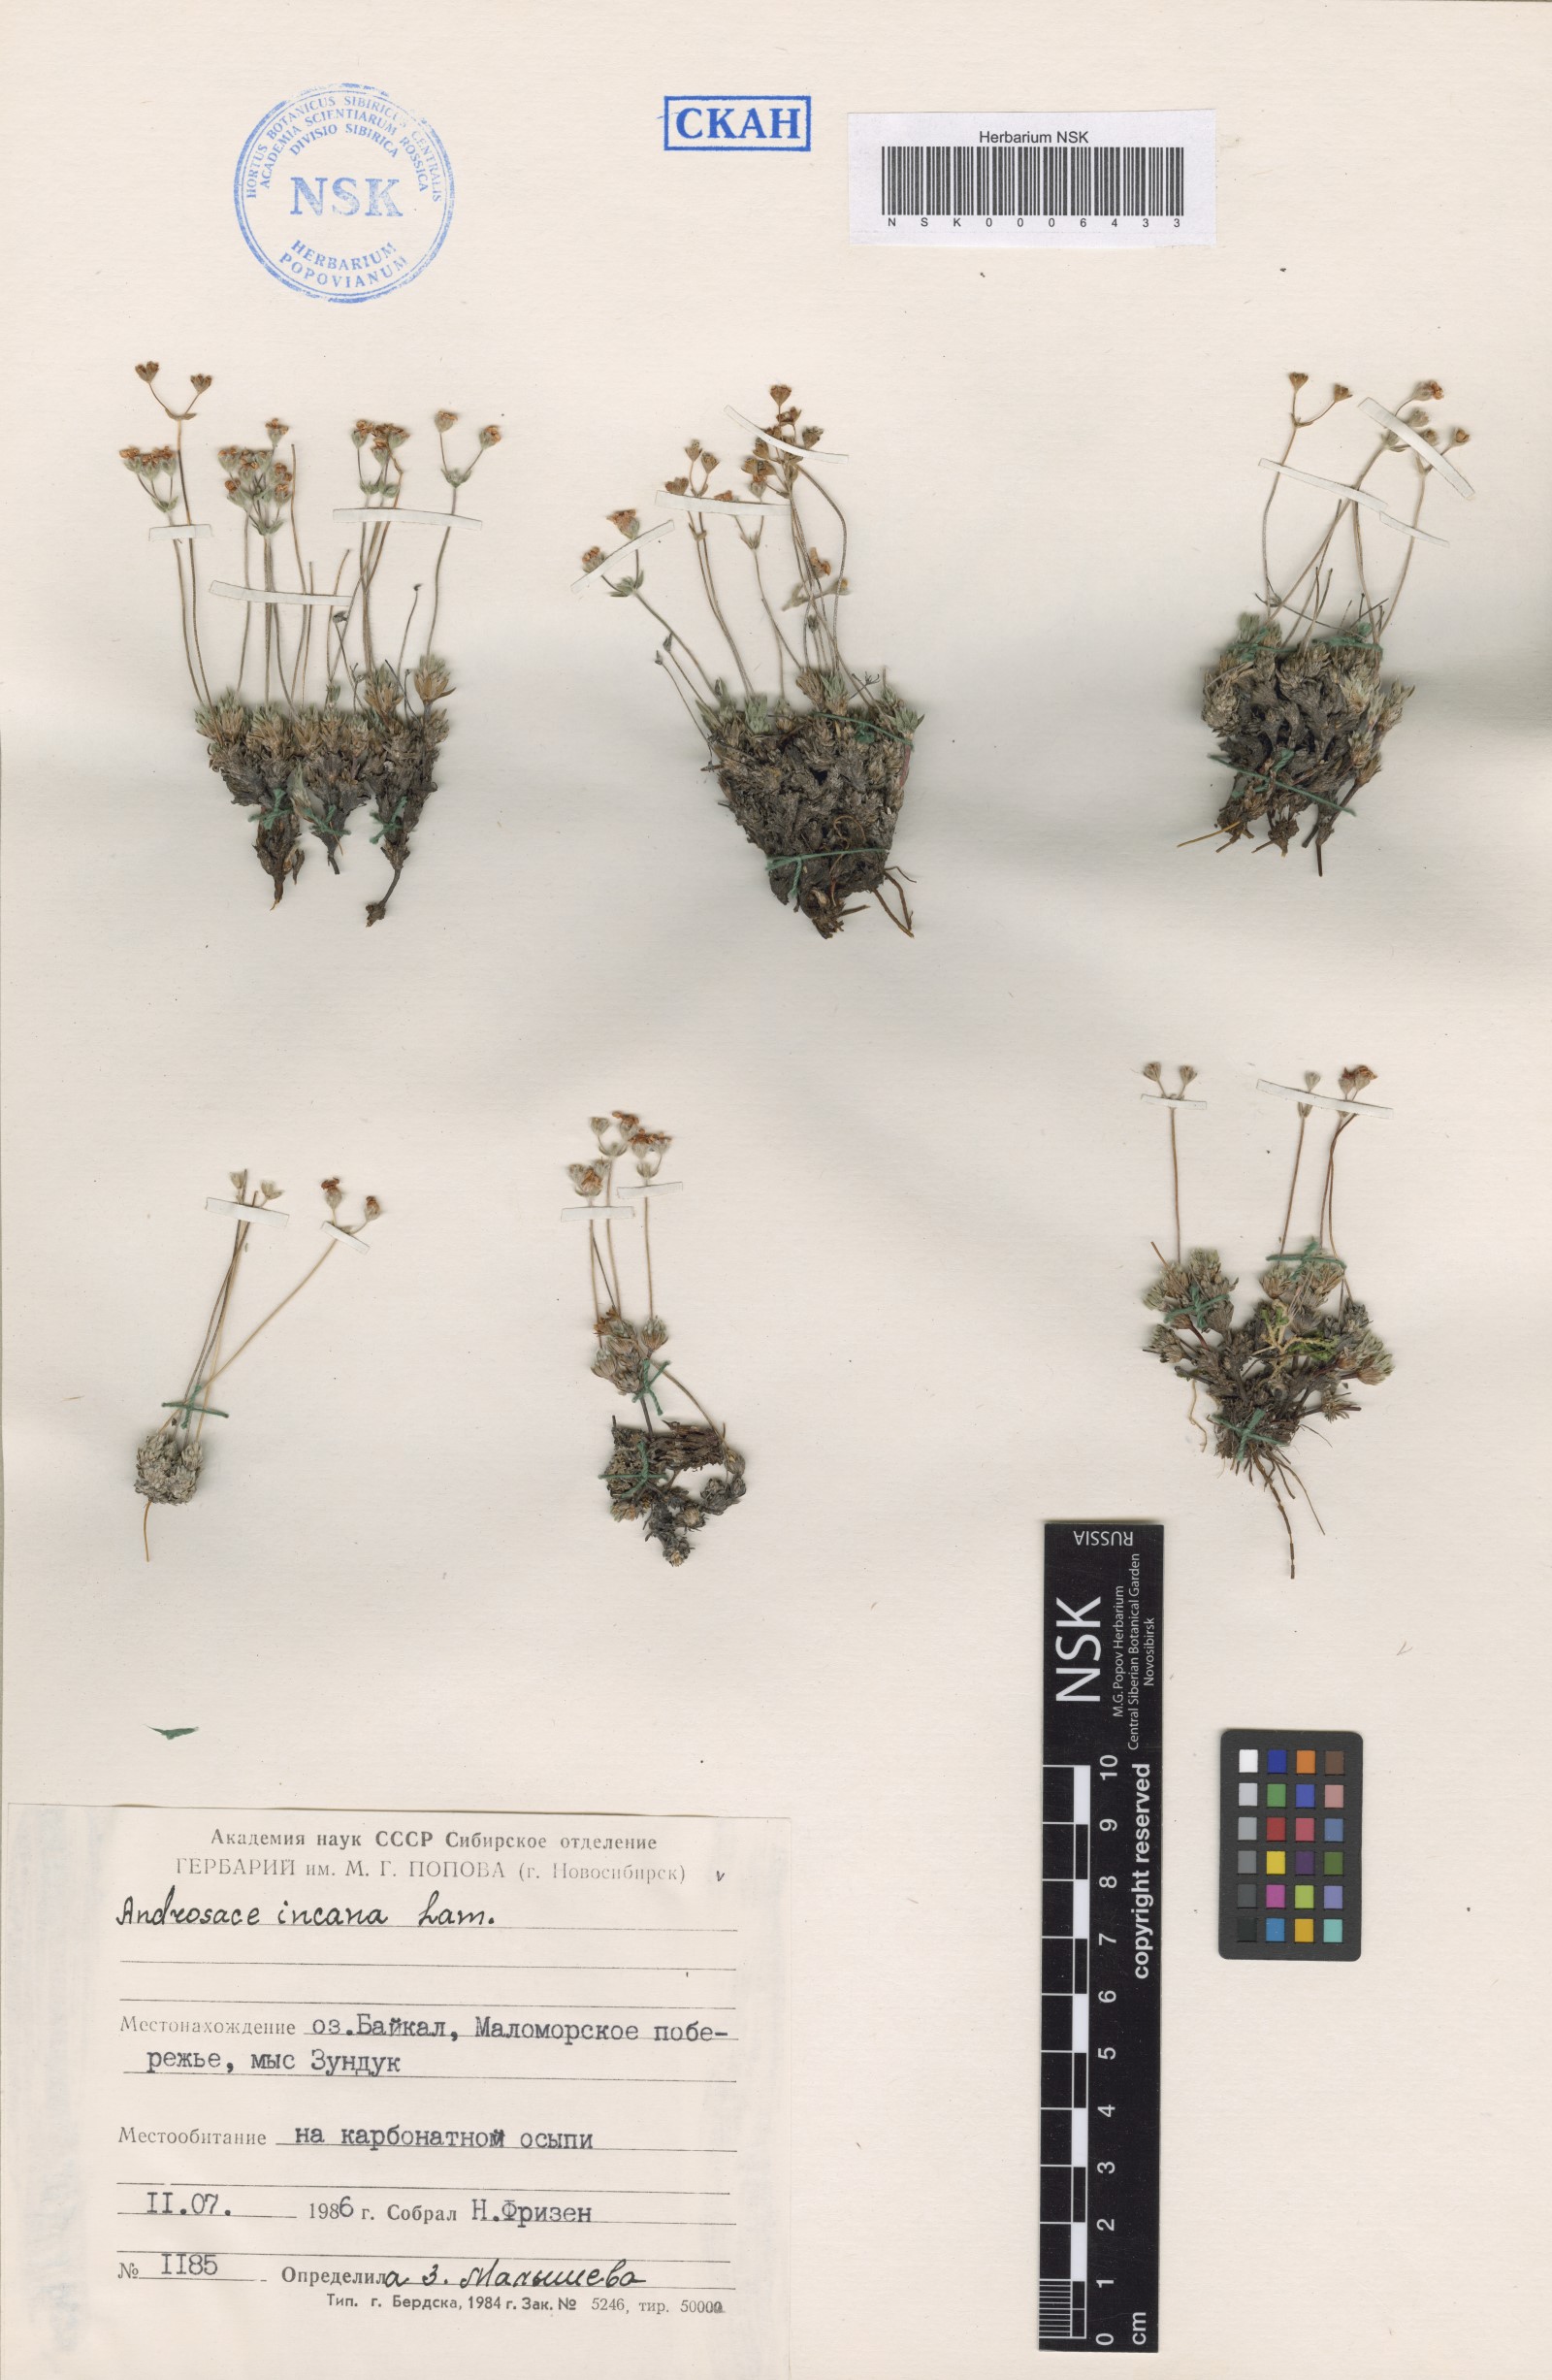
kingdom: Plantae
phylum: Tracheophyta
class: Magnoliopsida
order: Ericales
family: Primulaceae
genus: Androsace
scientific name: Androsace incana
